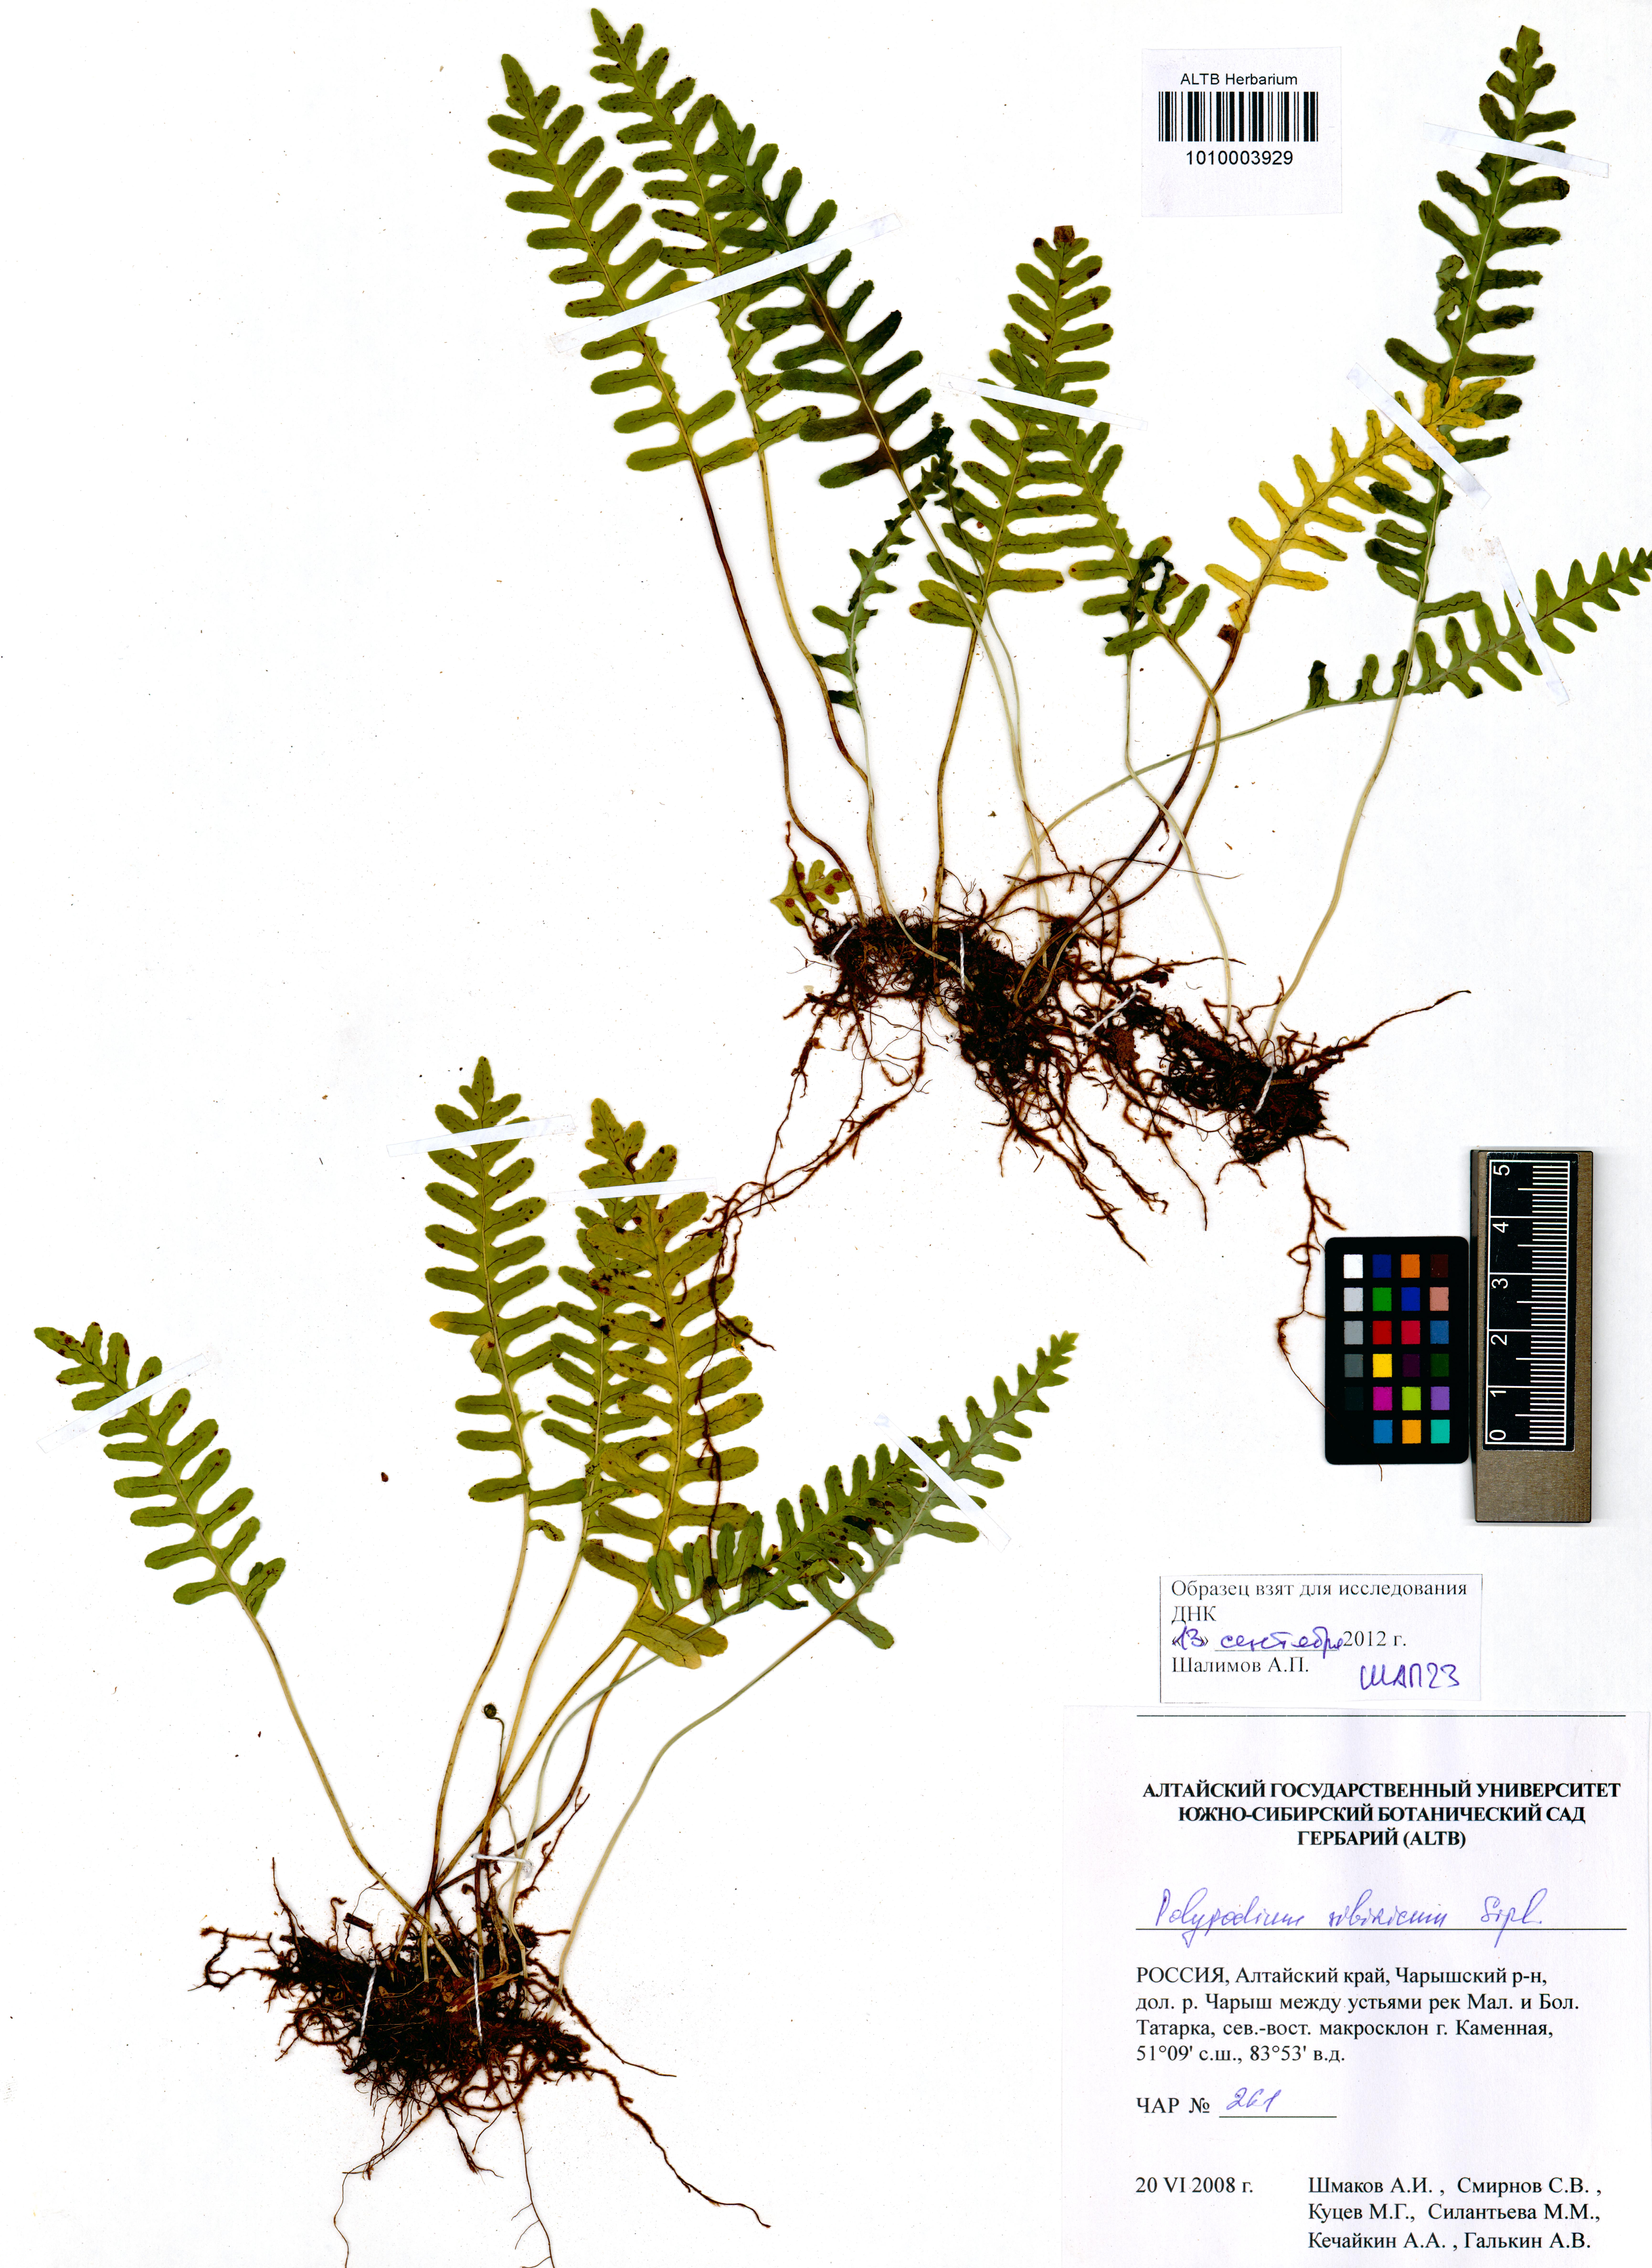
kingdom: Plantae
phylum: Tracheophyta
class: Polypodiopsida
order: Polypodiales
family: Polypodiaceae
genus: Polypodium
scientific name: Polypodium sibiricum
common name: Siberian polypody
